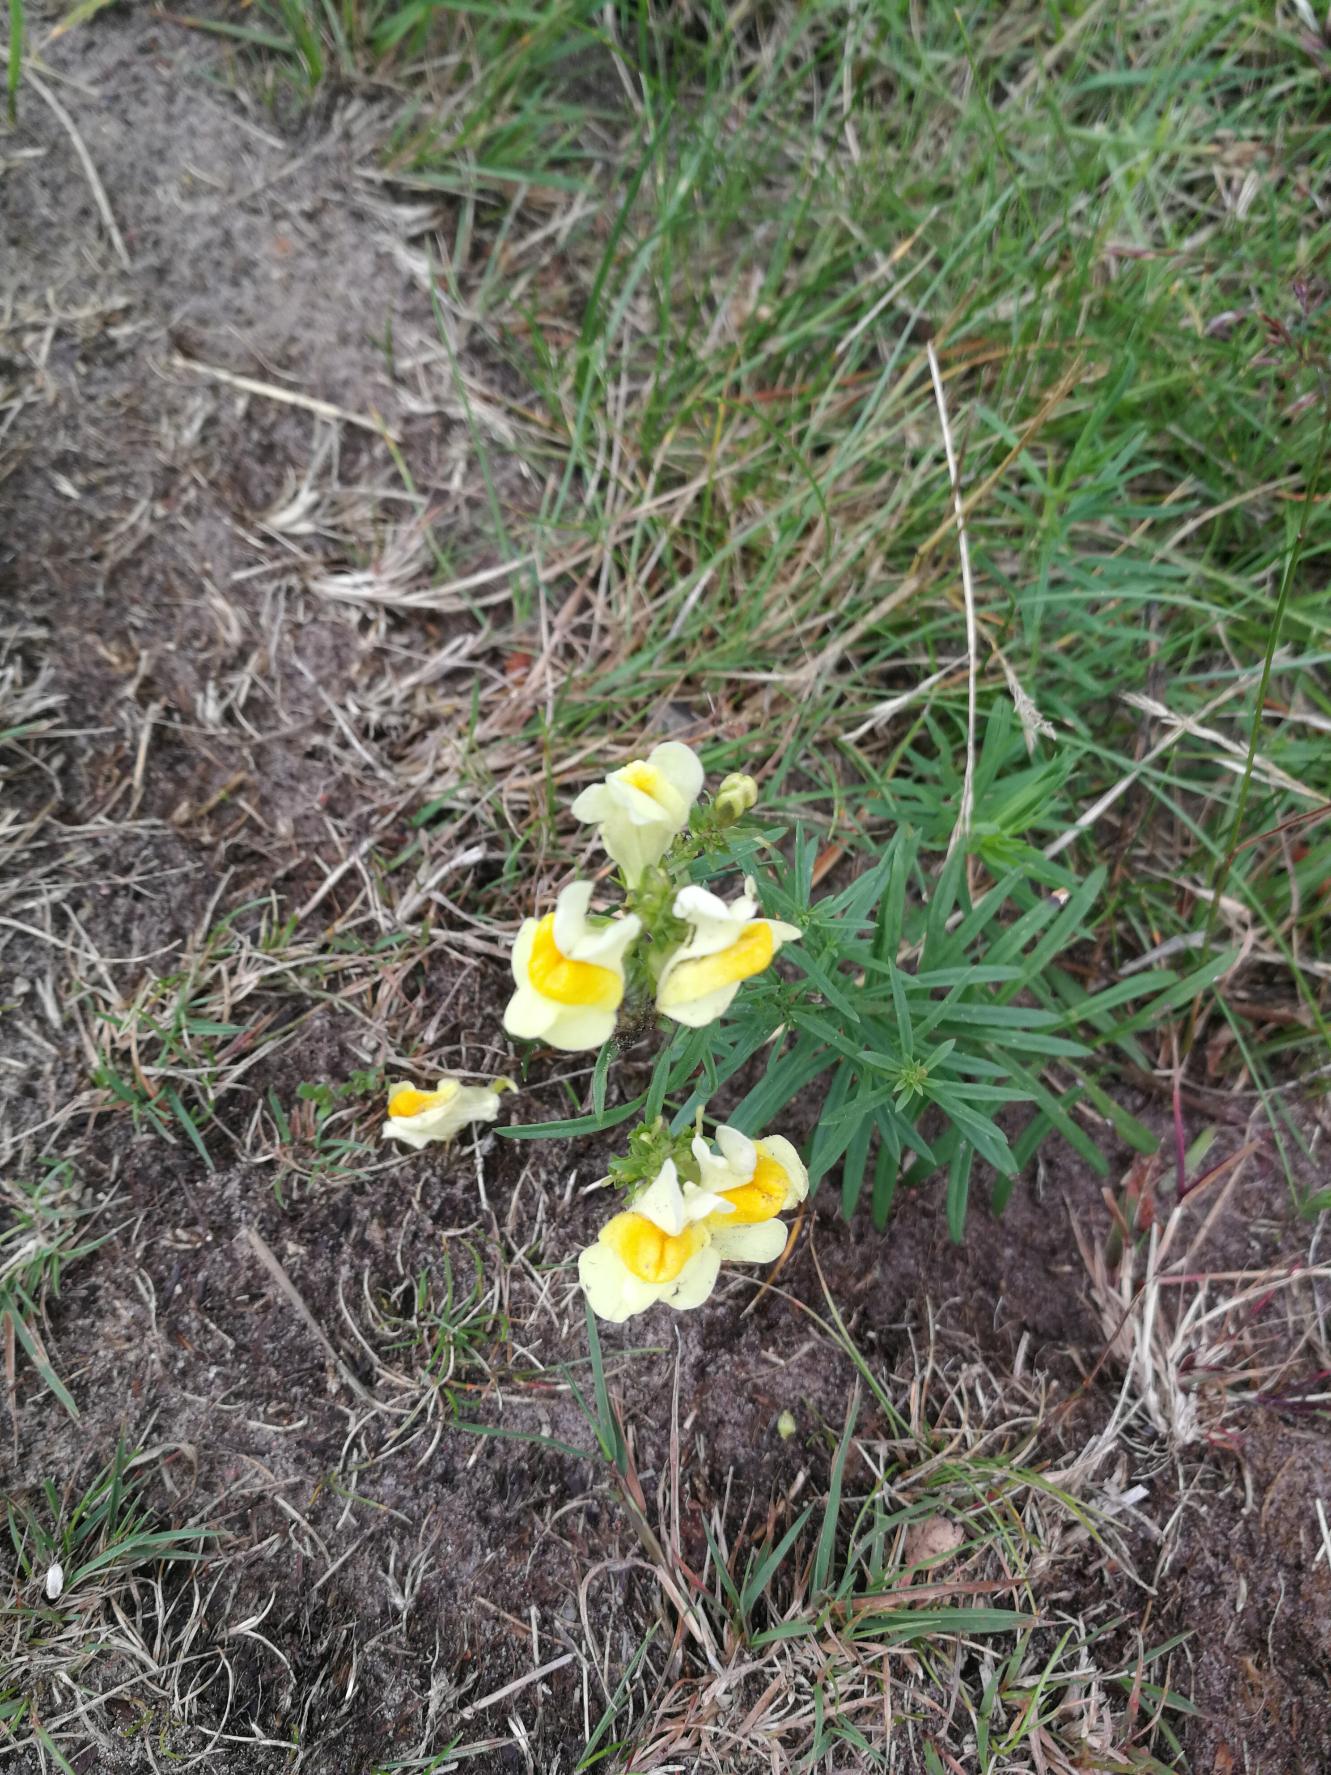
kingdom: Plantae
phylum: Tracheophyta
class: Magnoliopsida
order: Lamiales
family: Plantaginaceae
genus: Linaria
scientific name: Linaria vulgaris
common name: Almindelig torskemund
